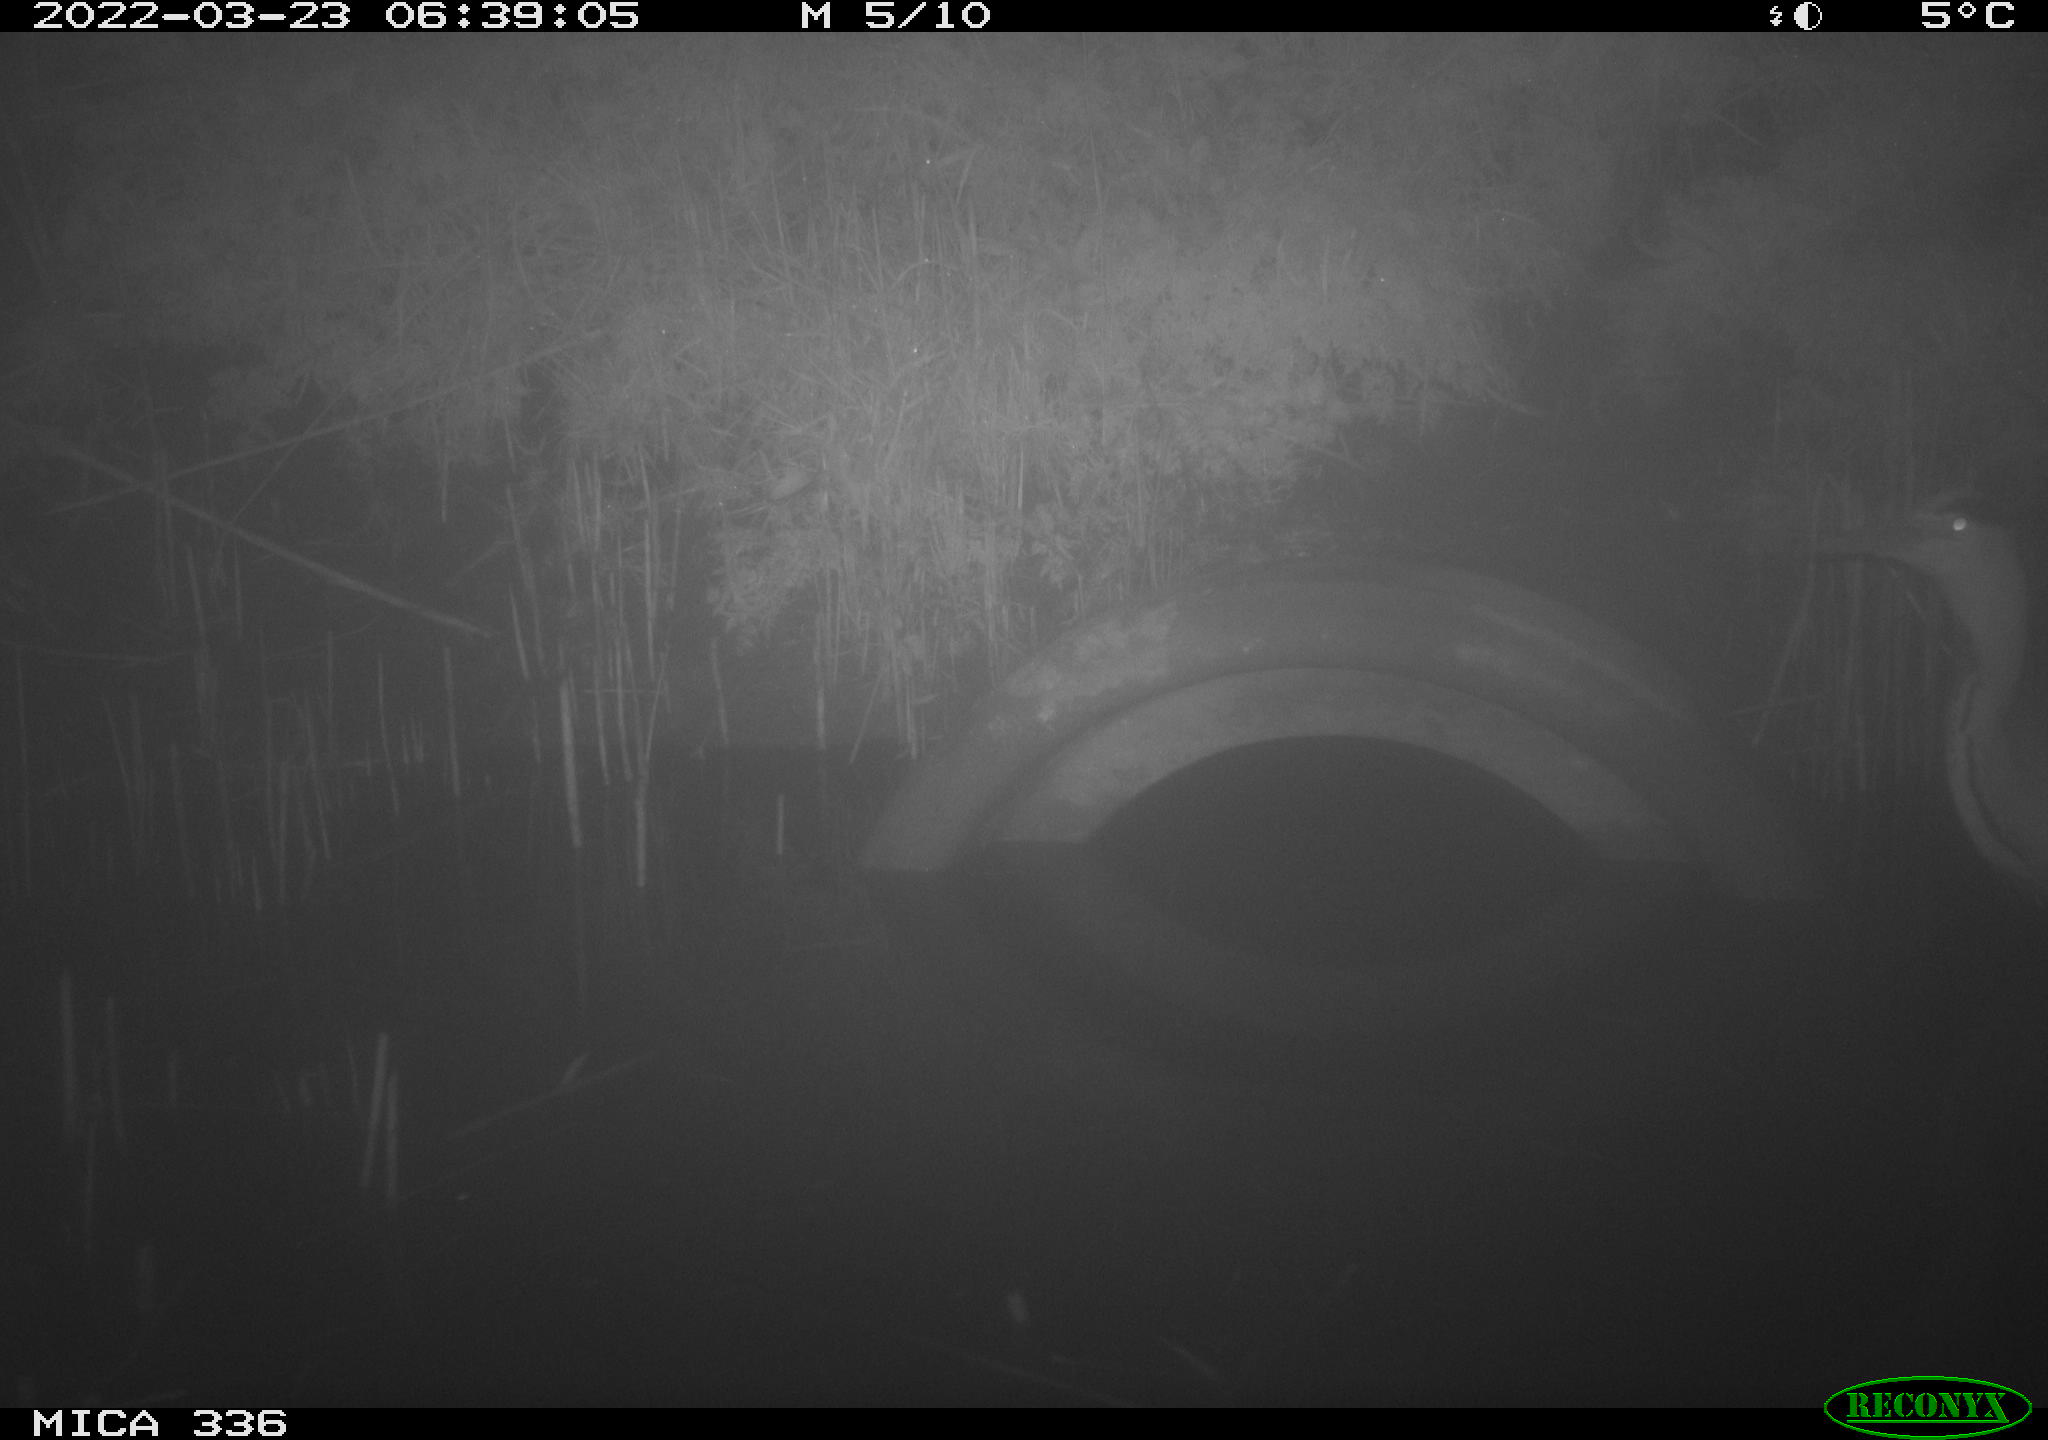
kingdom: Animalia
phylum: Chordata
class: Aves
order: Pelecaniformes
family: Ardeidae
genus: Ardea
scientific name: Ardea cinerea
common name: Grey heron
